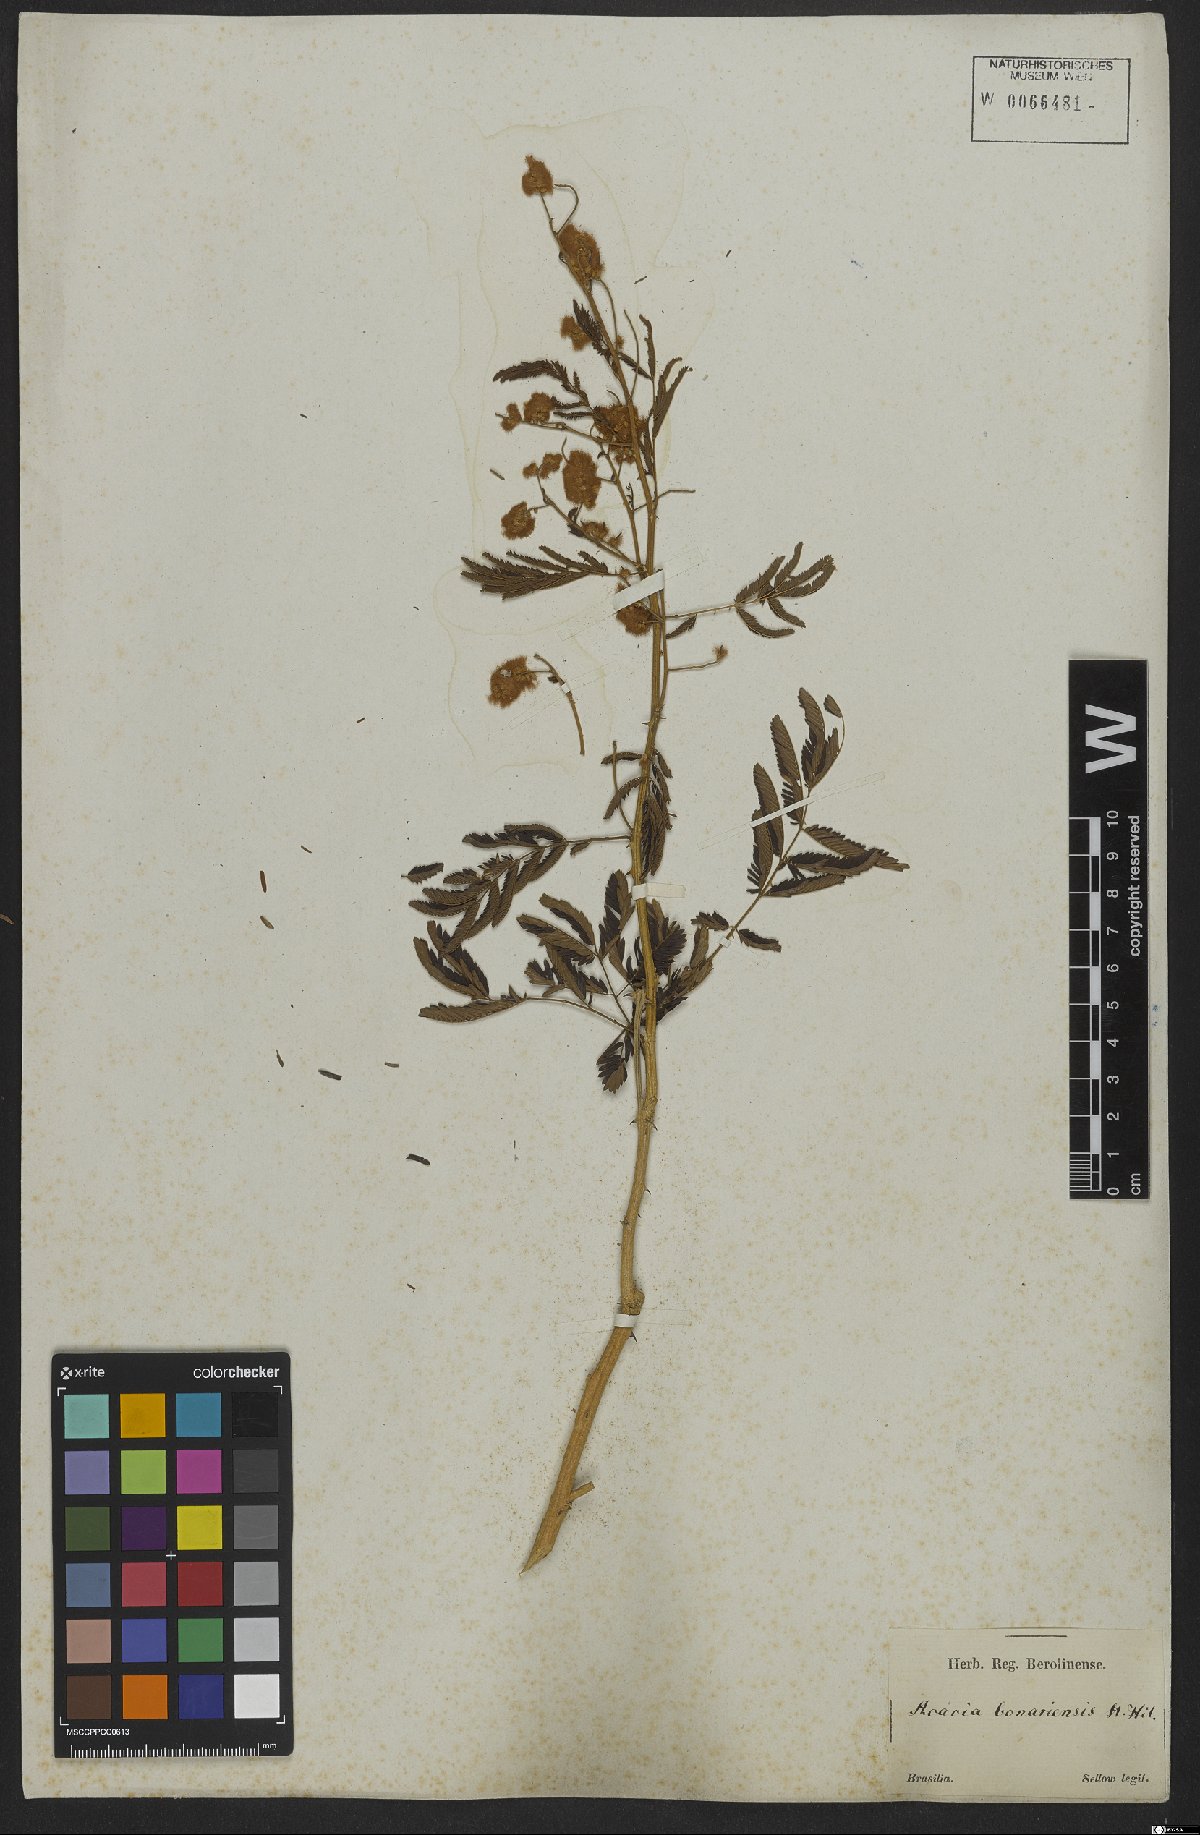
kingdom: Plantae
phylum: Tracheophyta
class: Magnoliopsida
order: Fabales
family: Fabaceae
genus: Senegalia
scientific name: Senegalia bonariensis
